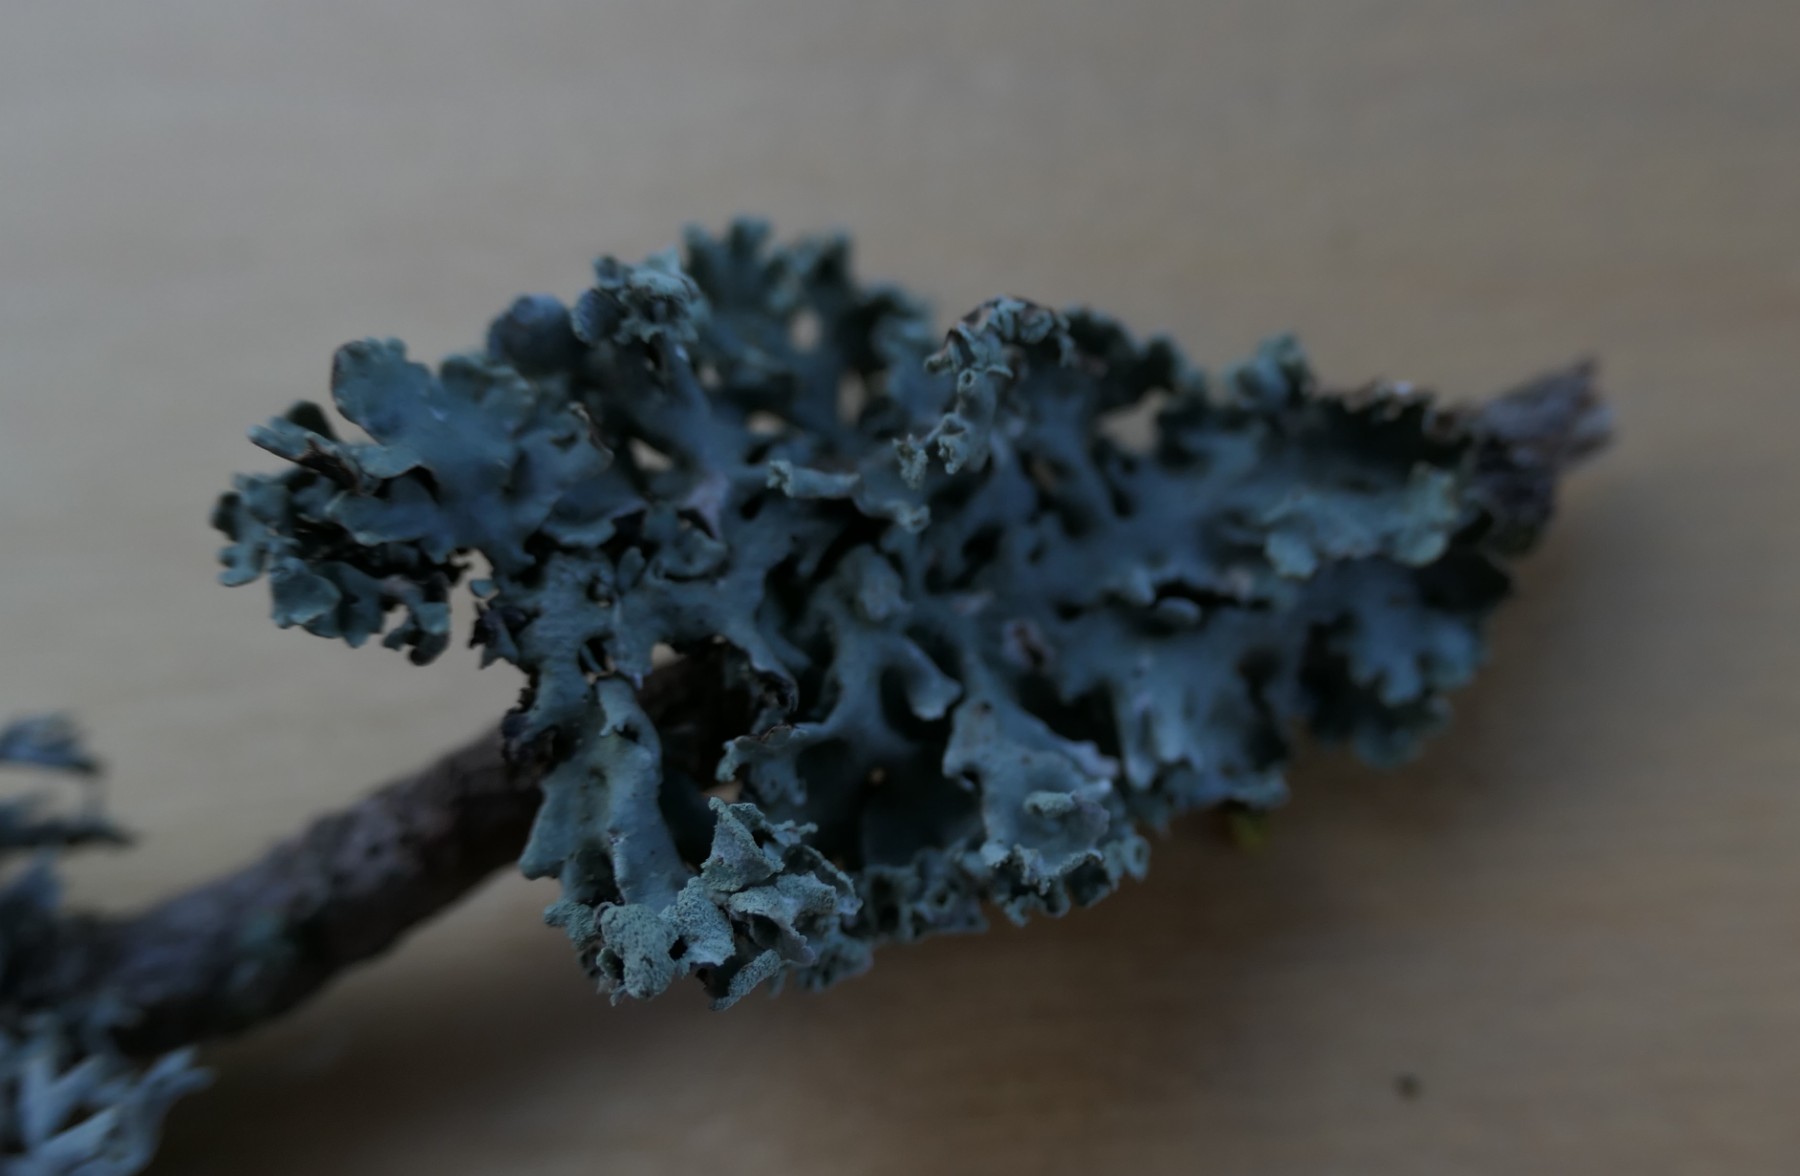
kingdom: Fungi
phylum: Ascomycota
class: Lecanoromycetes
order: Lecanorales
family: Parmeliaceae
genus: Hypogymnia
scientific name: Hypogymnia physodes
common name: almindelig kvistlav
